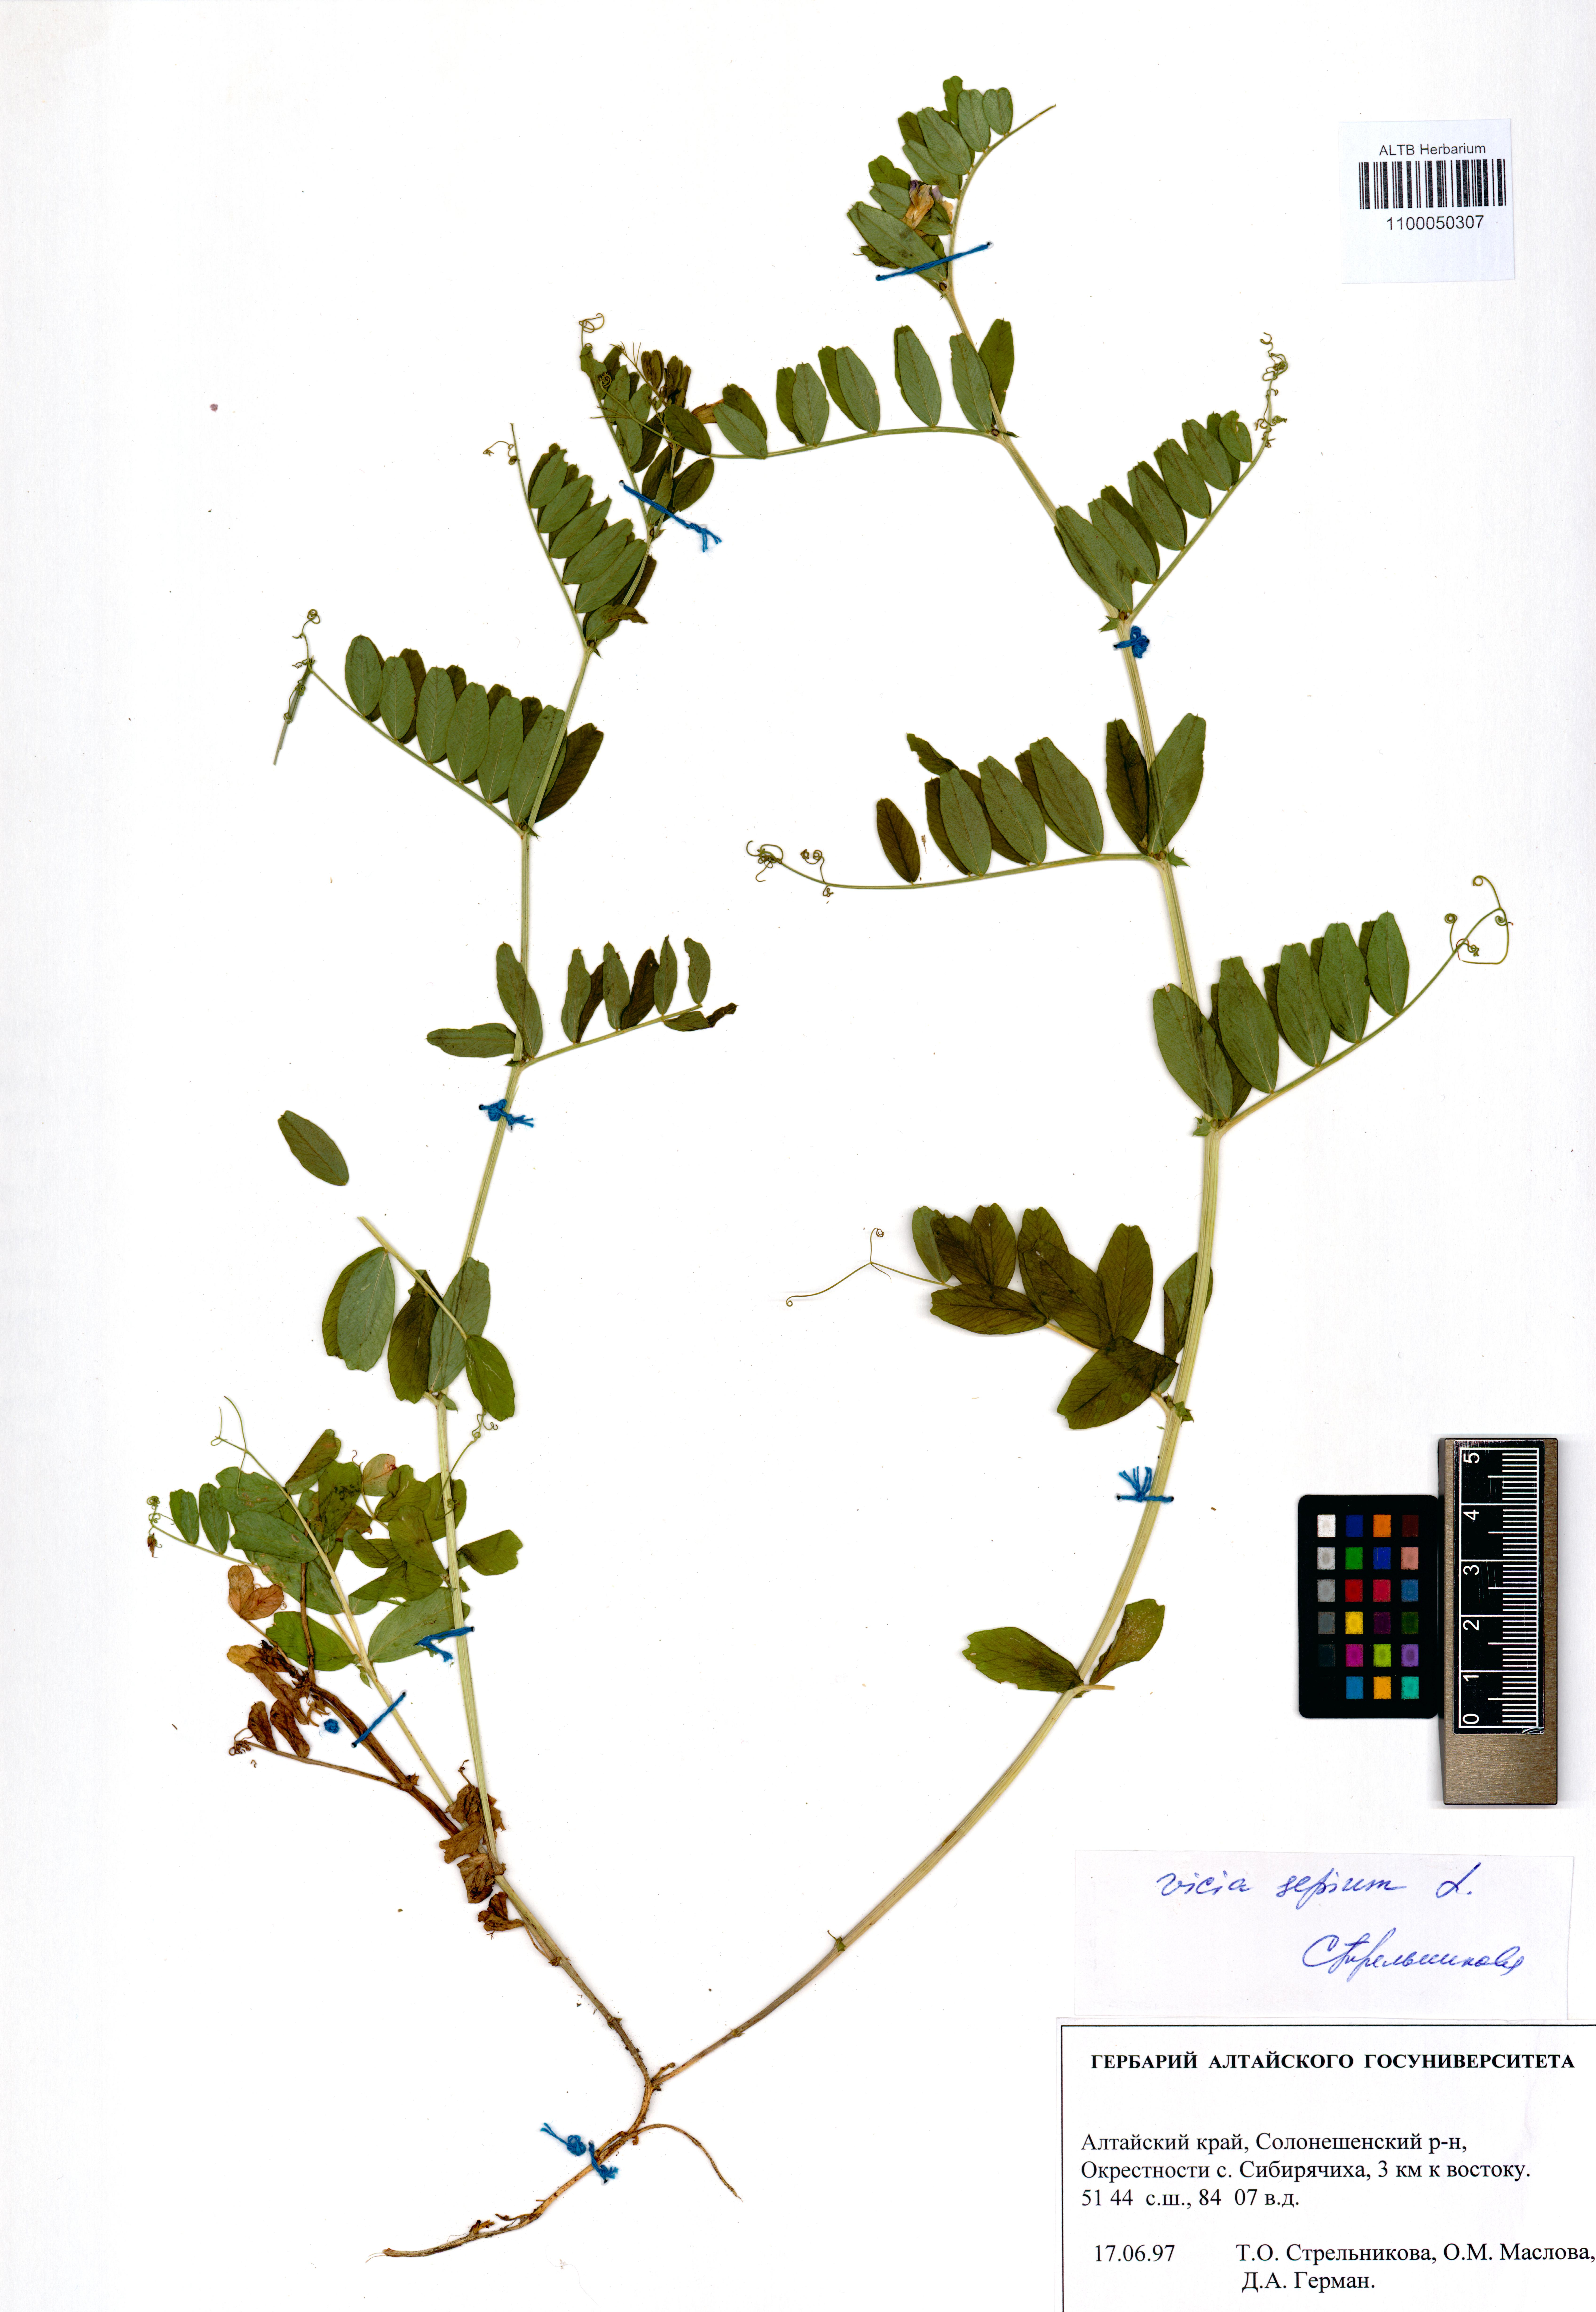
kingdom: Plantae
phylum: Tracheophyta
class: Magnoliopsida
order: Fabales
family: Fabaceae
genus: Vicia
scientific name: Vicia sepium
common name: Bush vetch
